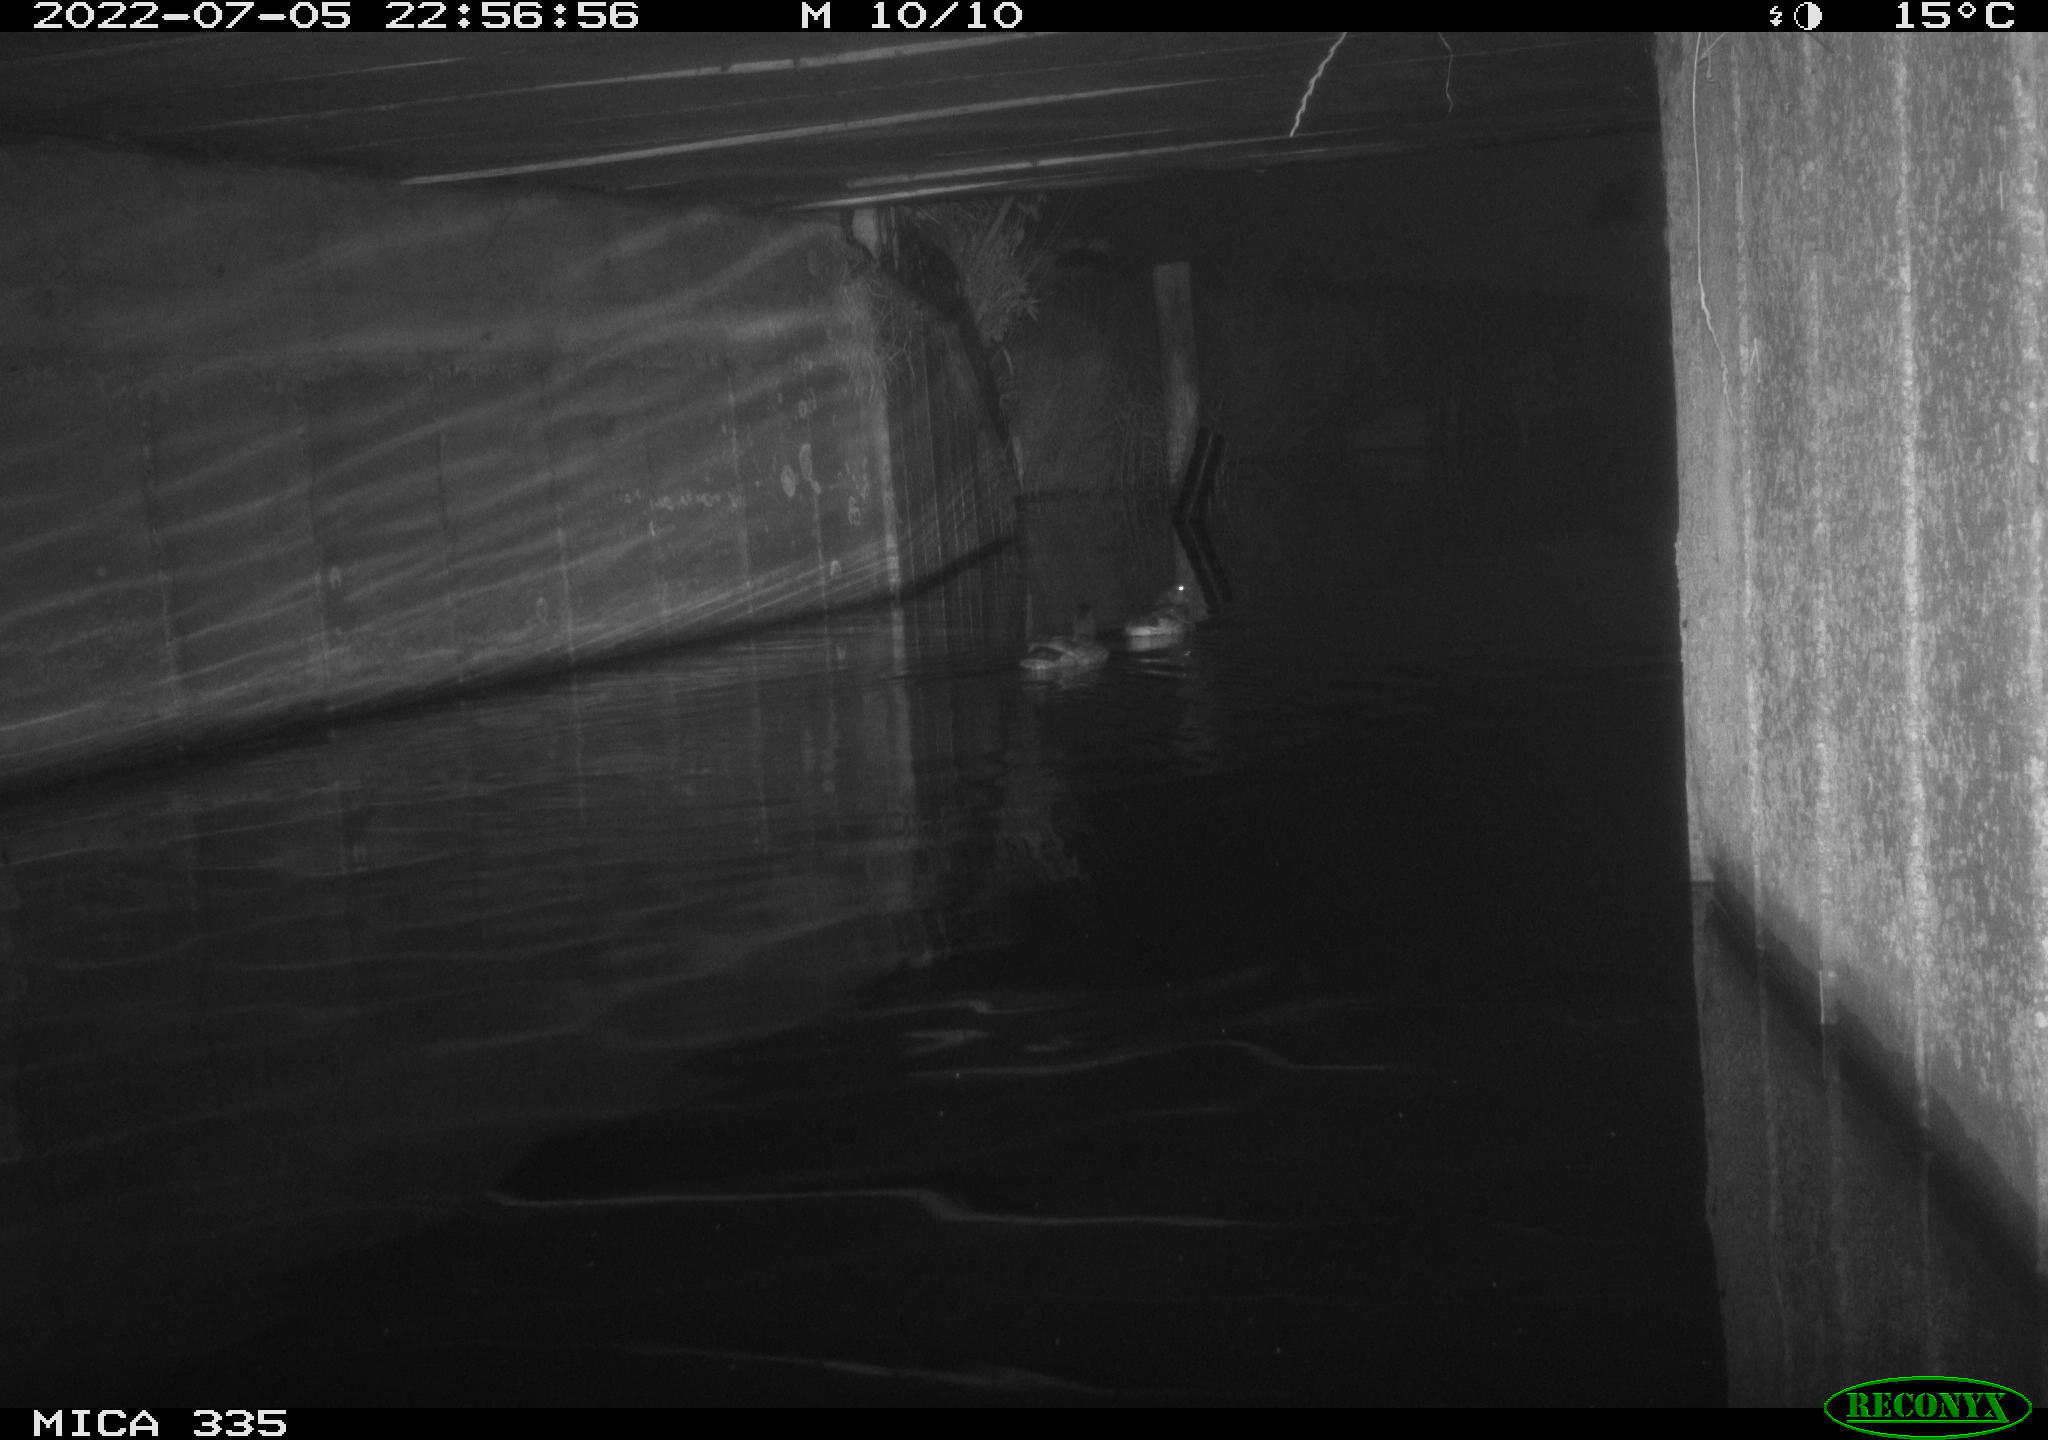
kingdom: Animalia
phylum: Chordata
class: Aves
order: Anseriformes
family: Anatidae
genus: Anas
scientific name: Anas platyrhynchos
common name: Mallard
